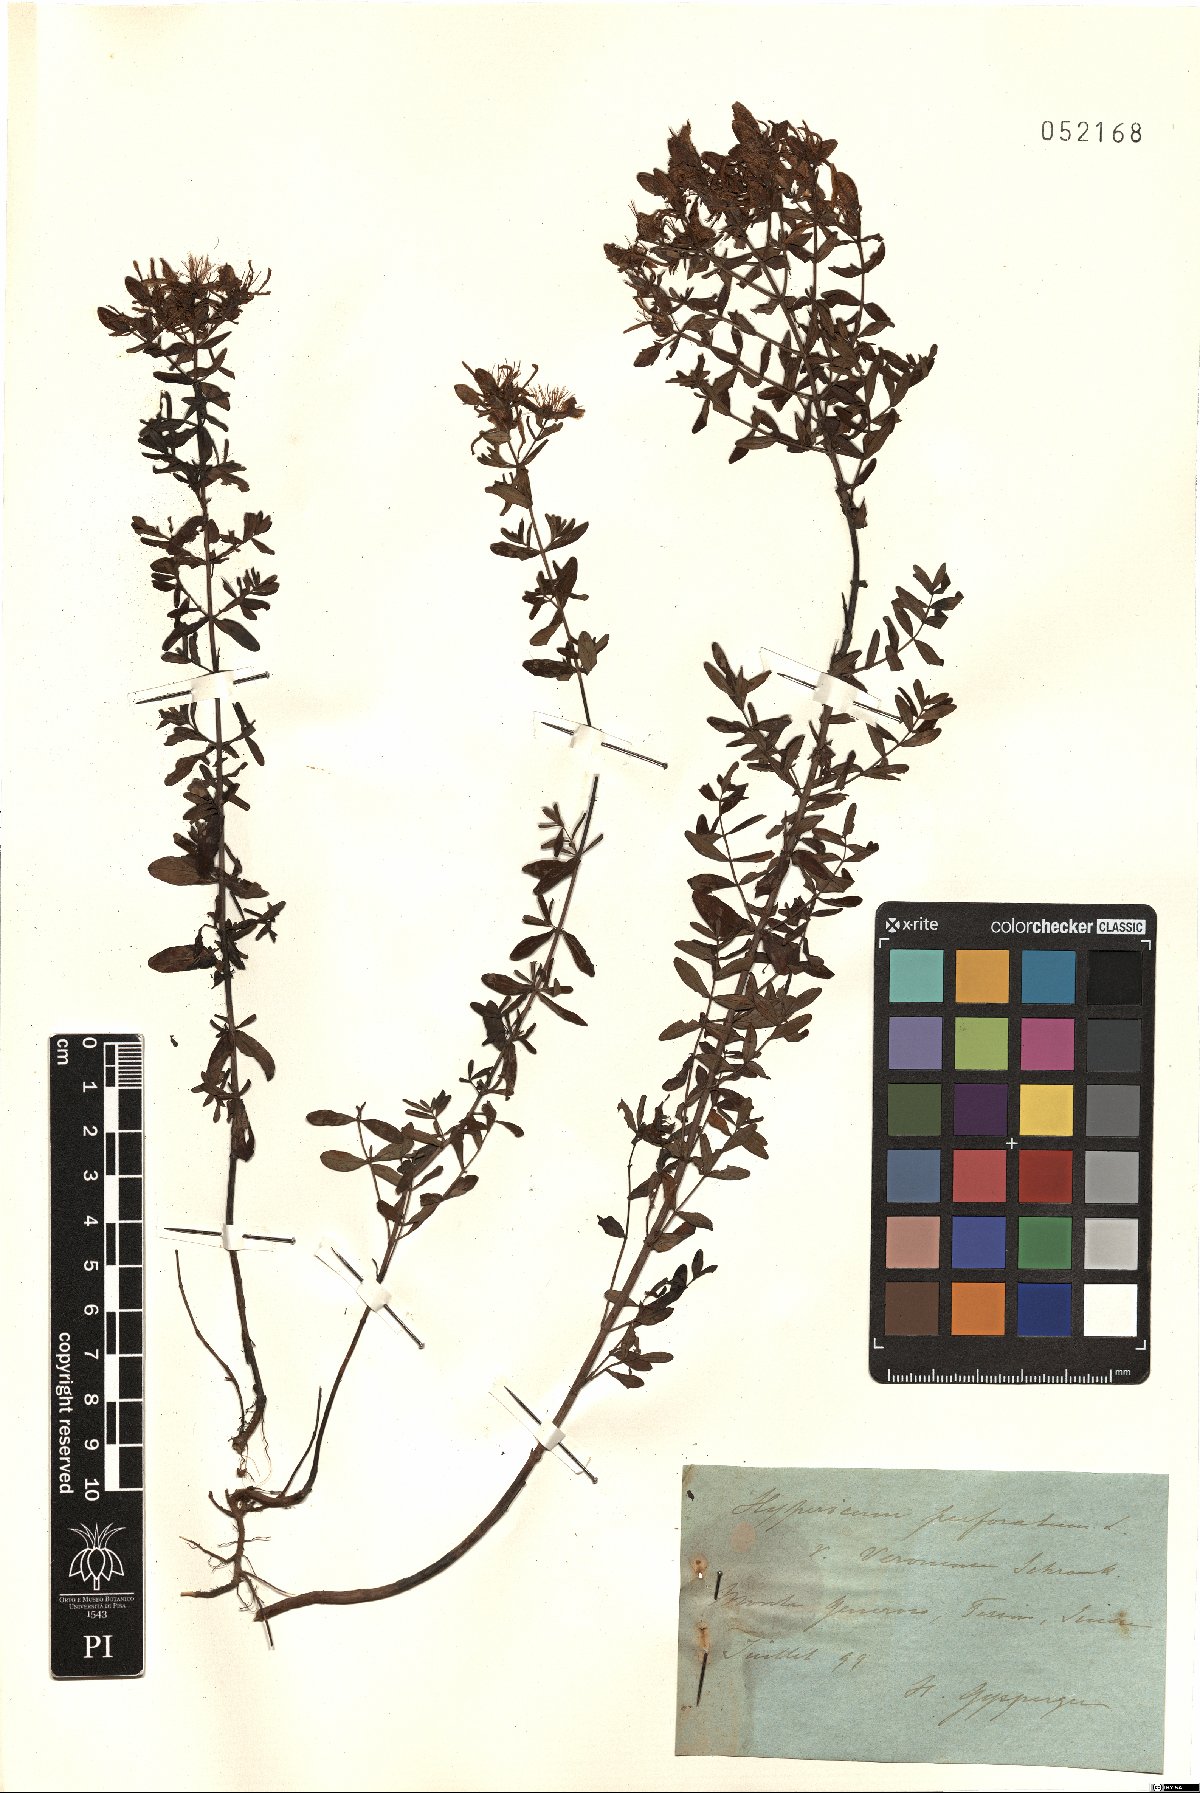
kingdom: Plantae
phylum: Tracheophyta
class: Magnoliopsida
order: Malpighiales
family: Hypericaceae
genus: Hypericum
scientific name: Hypericum perforatum
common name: Common st. johnswort
